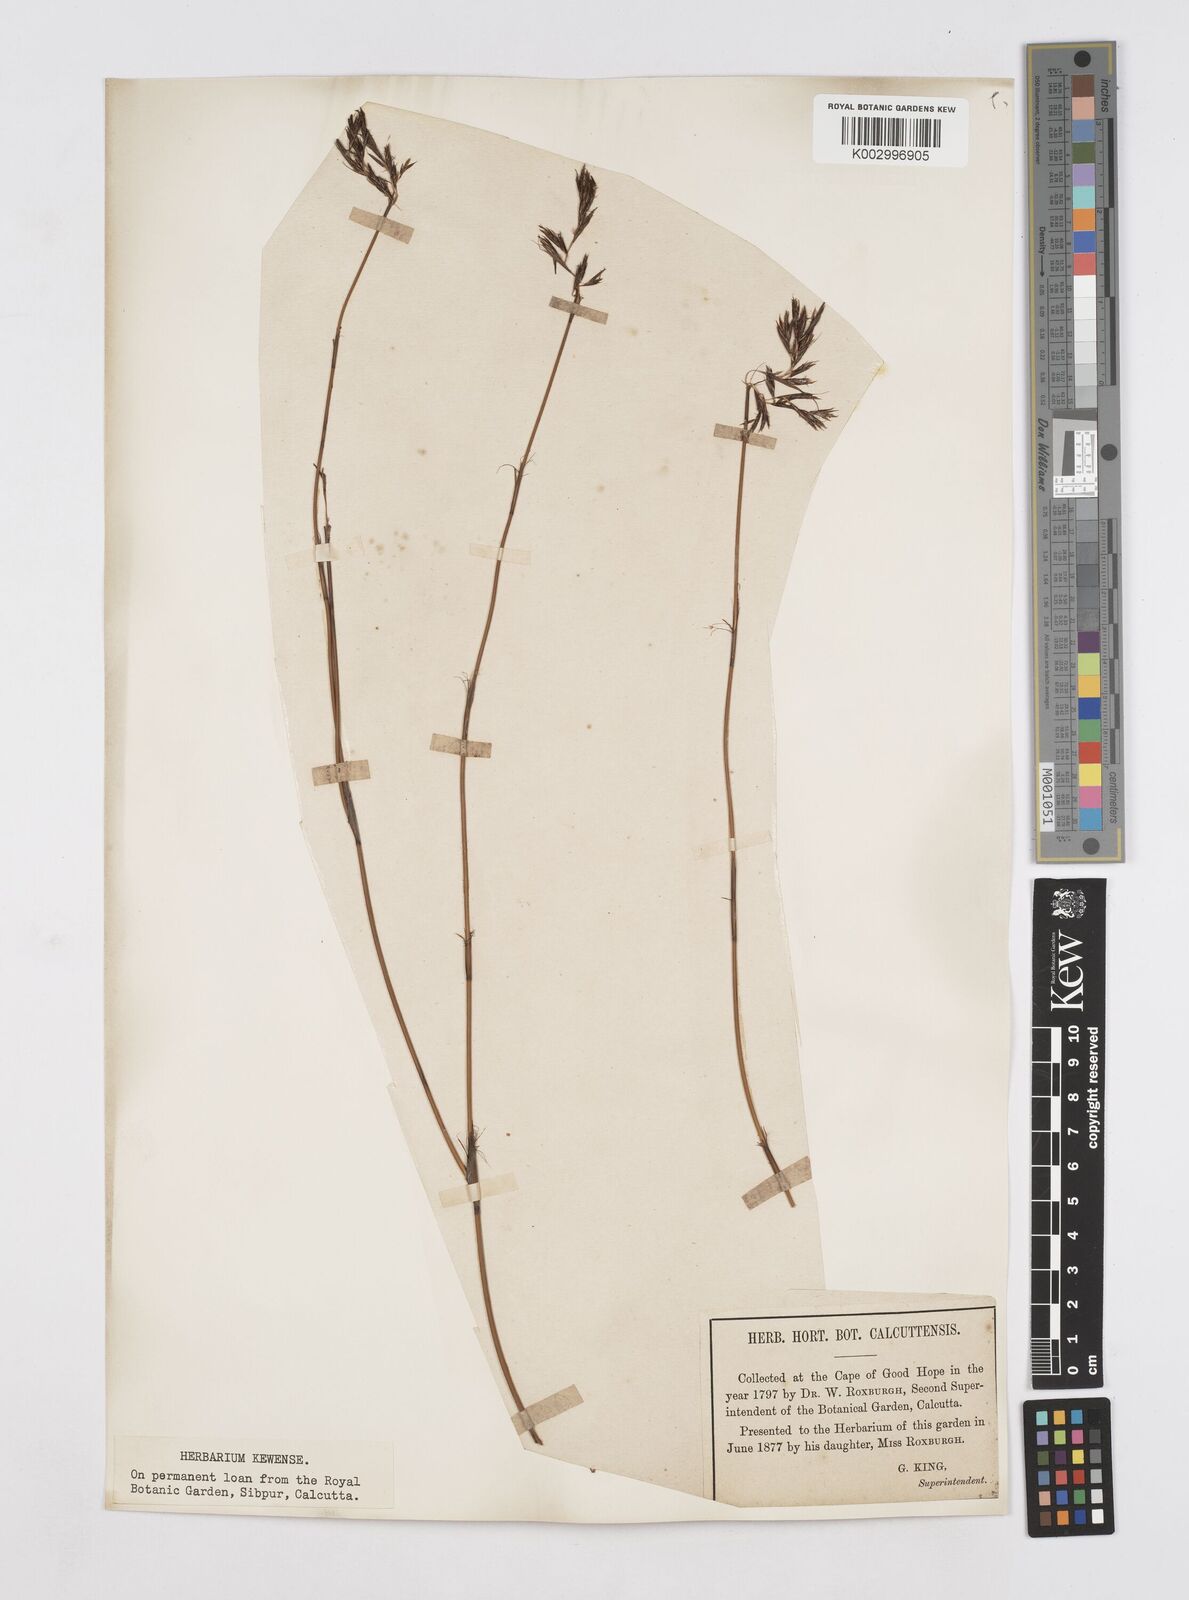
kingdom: Plantae
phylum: Tracheophyta
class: Liliopsida
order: Poales
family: Restionaceae
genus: Thamnochortus
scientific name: Thamnochortus lucens
